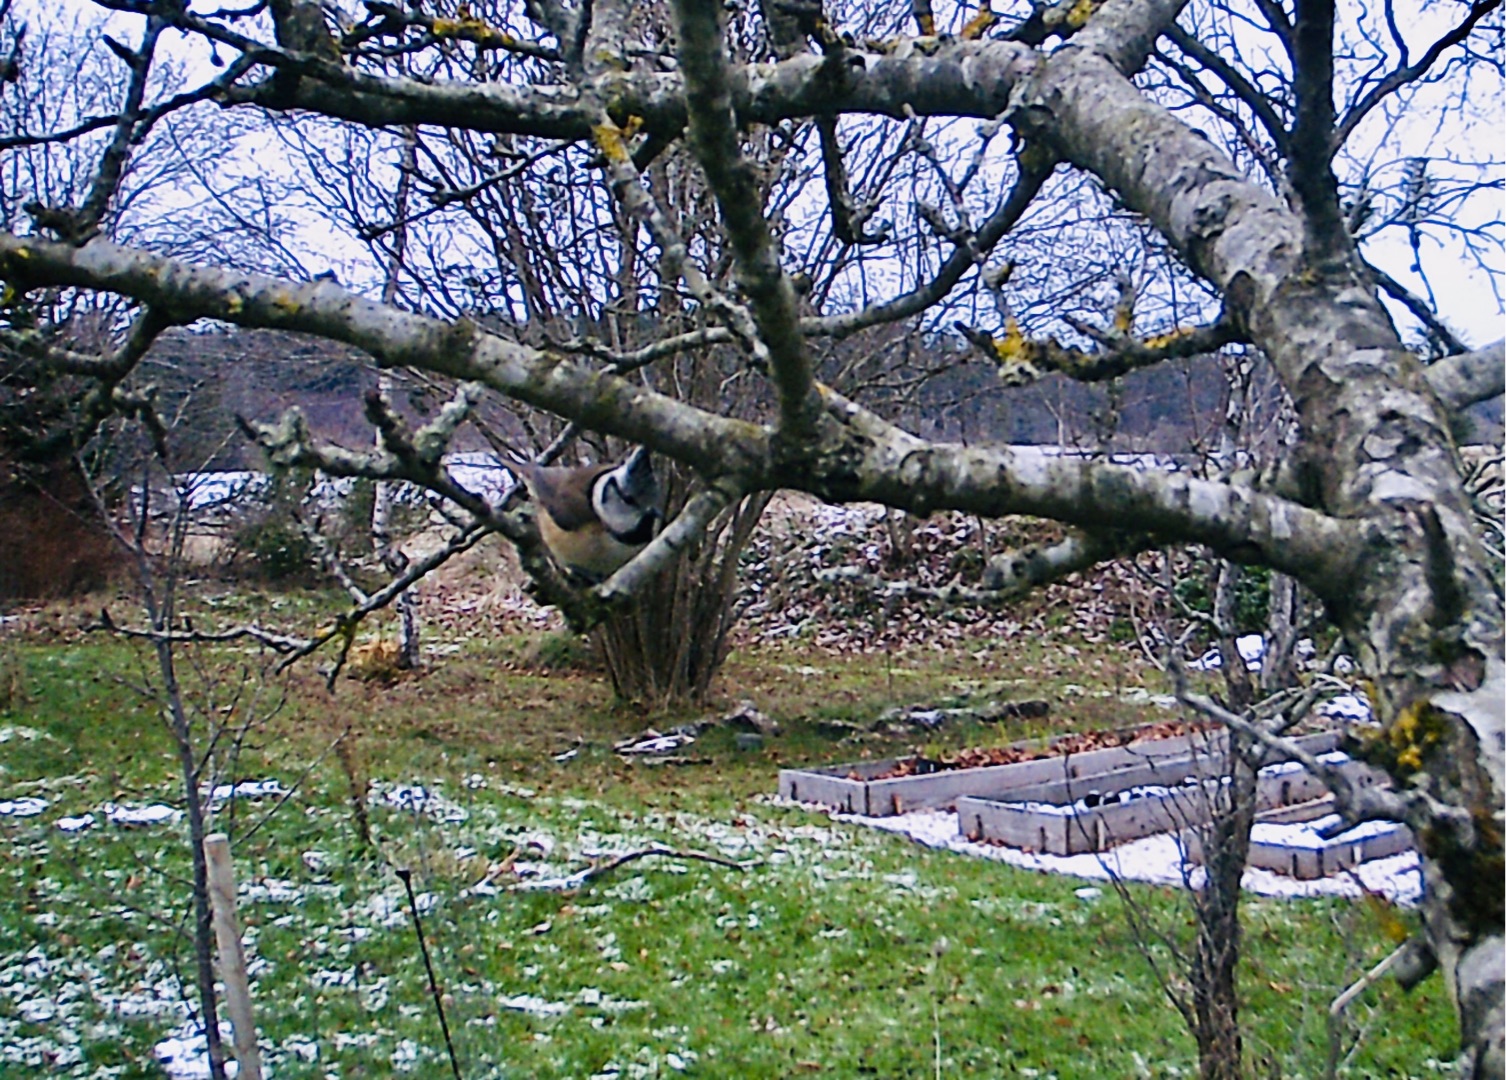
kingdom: Animalia
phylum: Chordata
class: Aves
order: Passeriformes
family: Paridae
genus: Lophophanes
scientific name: Lophophanes cristatus
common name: Topmejse
